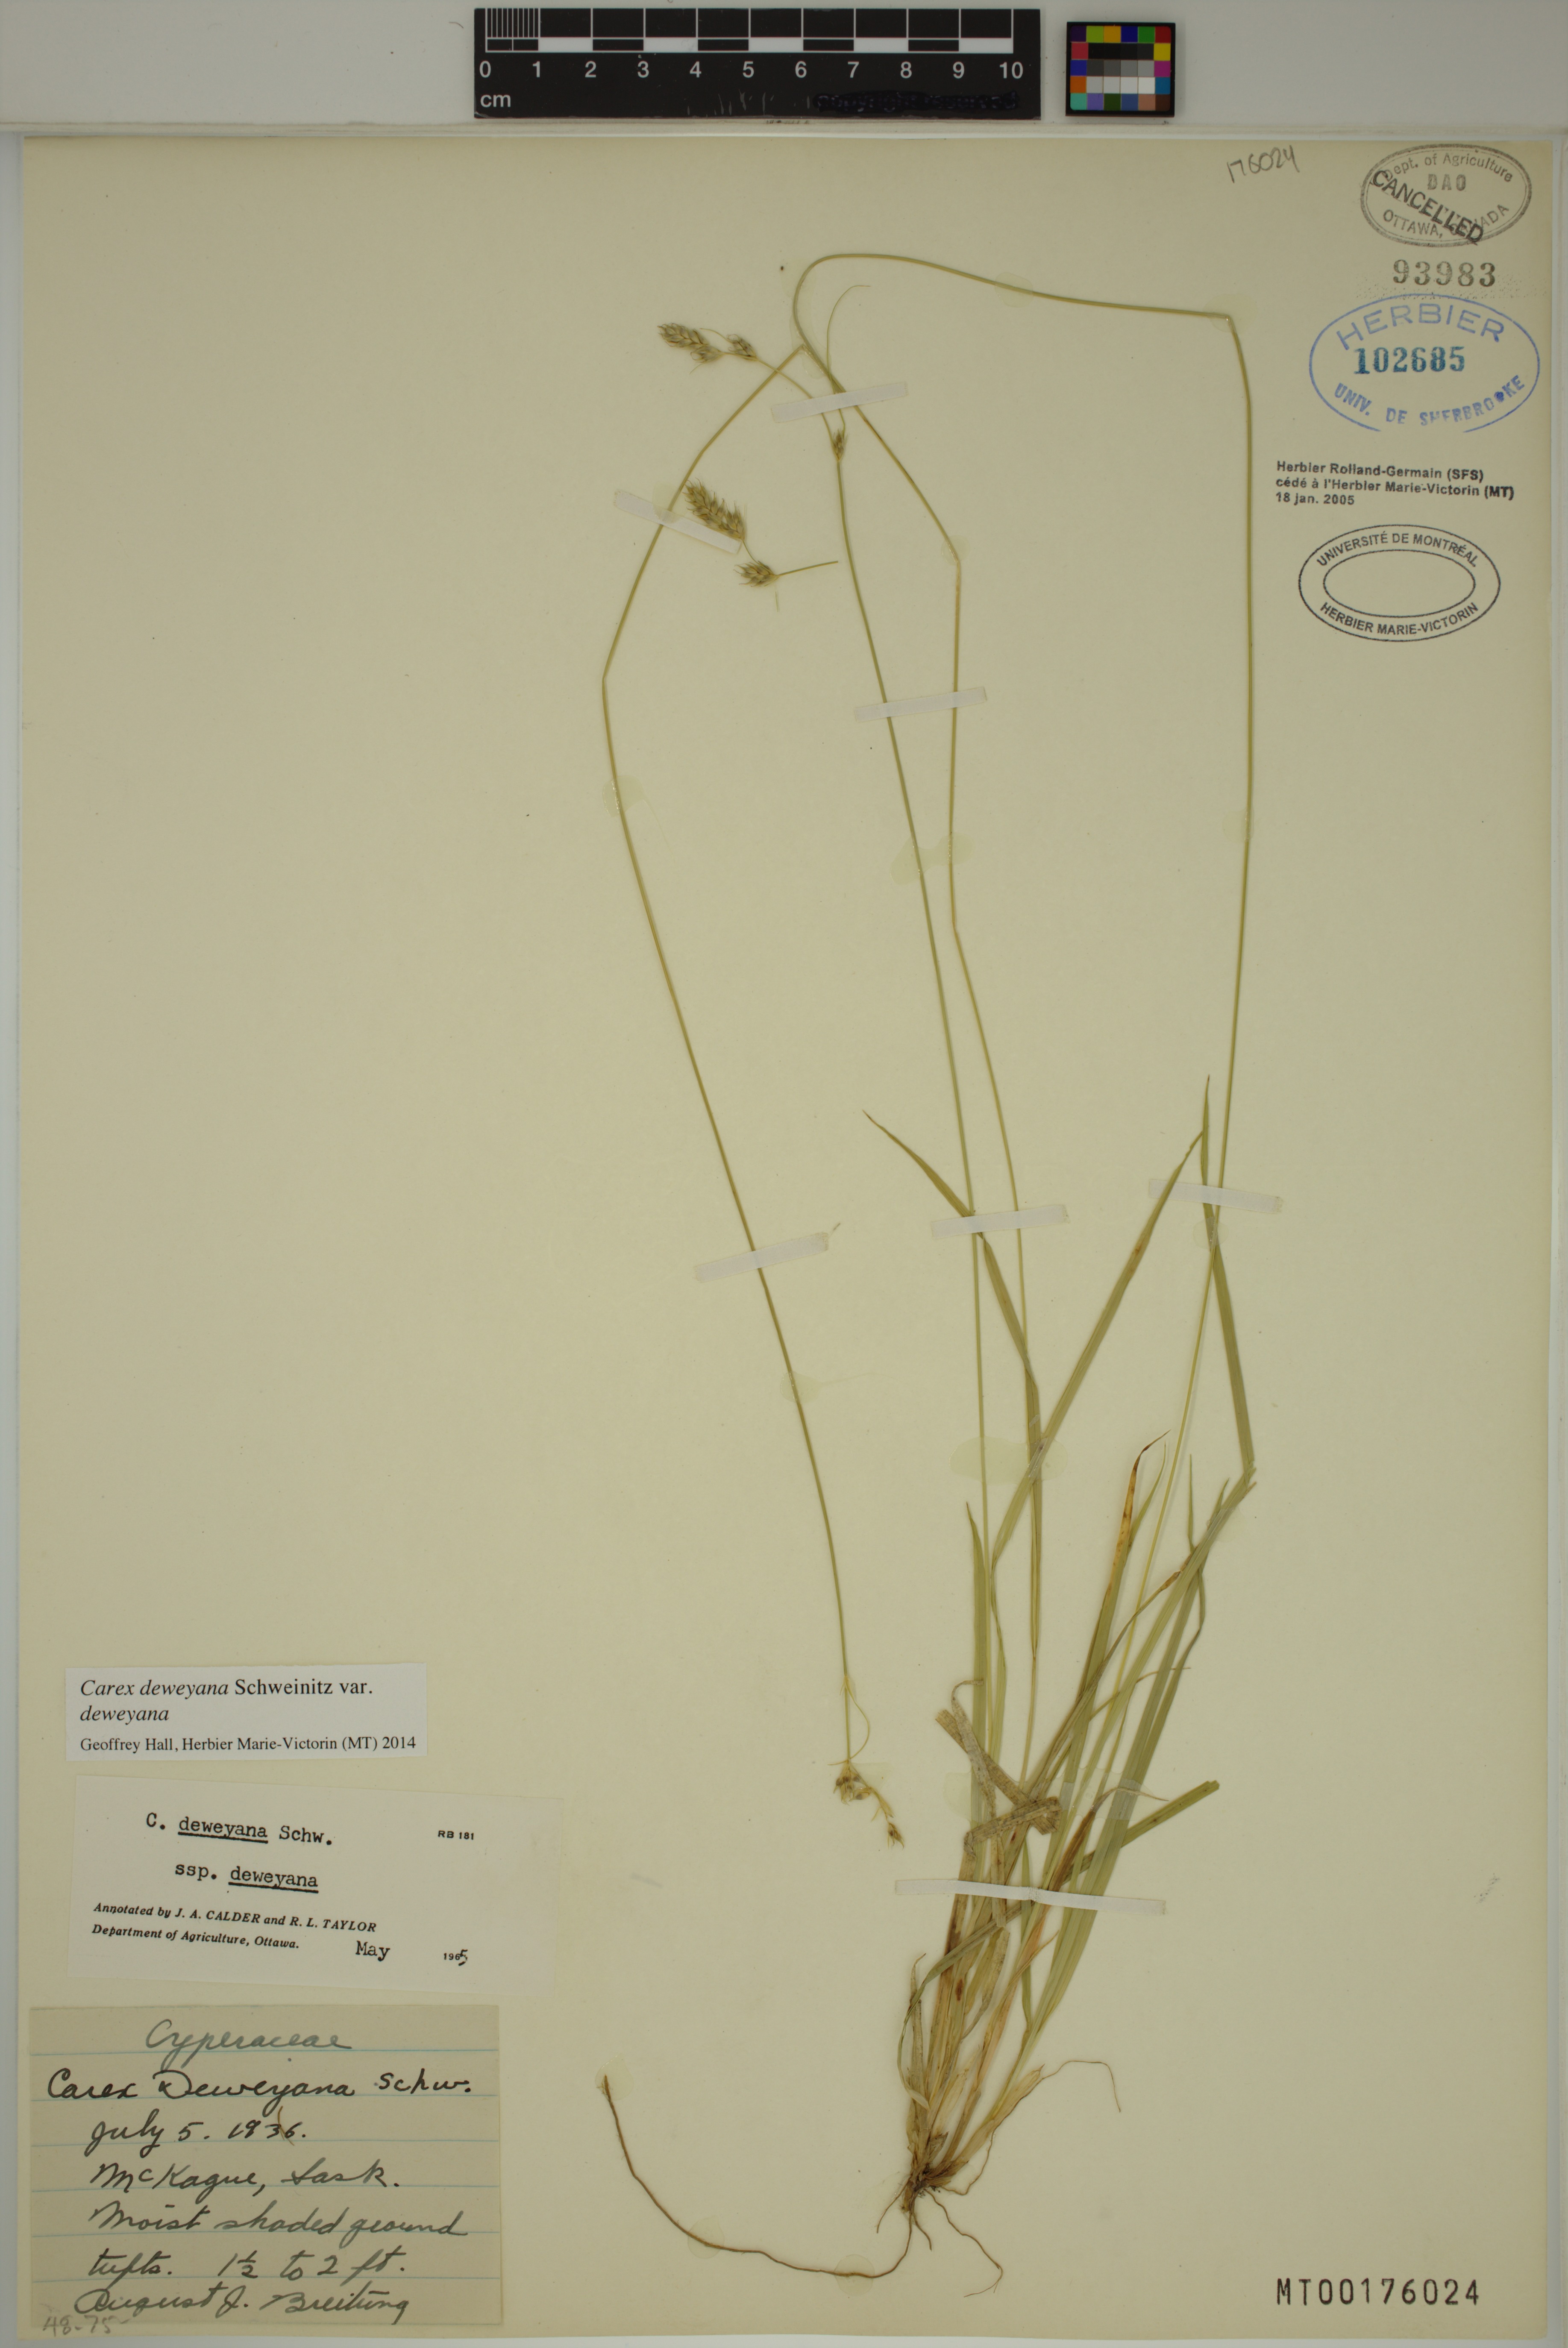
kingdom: Plantae
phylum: Tracheophyta
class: Liliopsida
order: Poales
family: Cyperaceae
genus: Carex
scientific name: Carex deweyana
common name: Dewey's sedge
